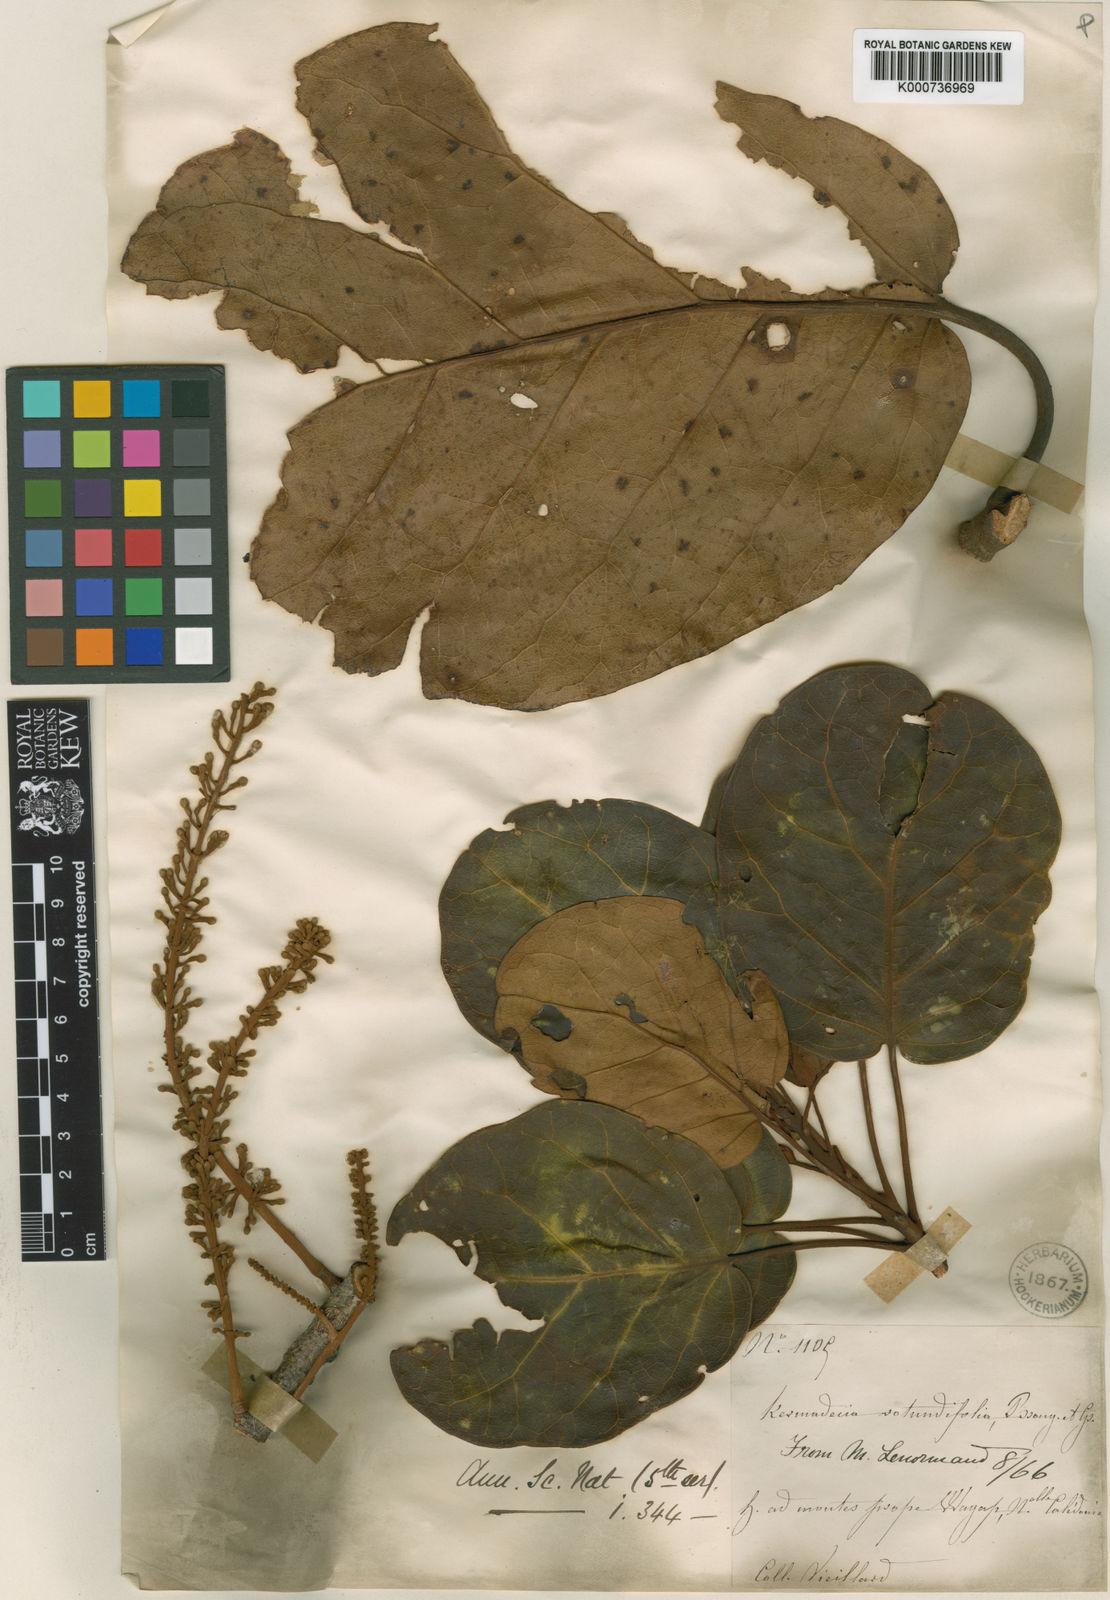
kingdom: Plantae
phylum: Tracheophyta
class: Magnoliopsida
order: Proteales
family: Proteaceae
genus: Kermadecia
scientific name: Kermadecia rotundifolia
